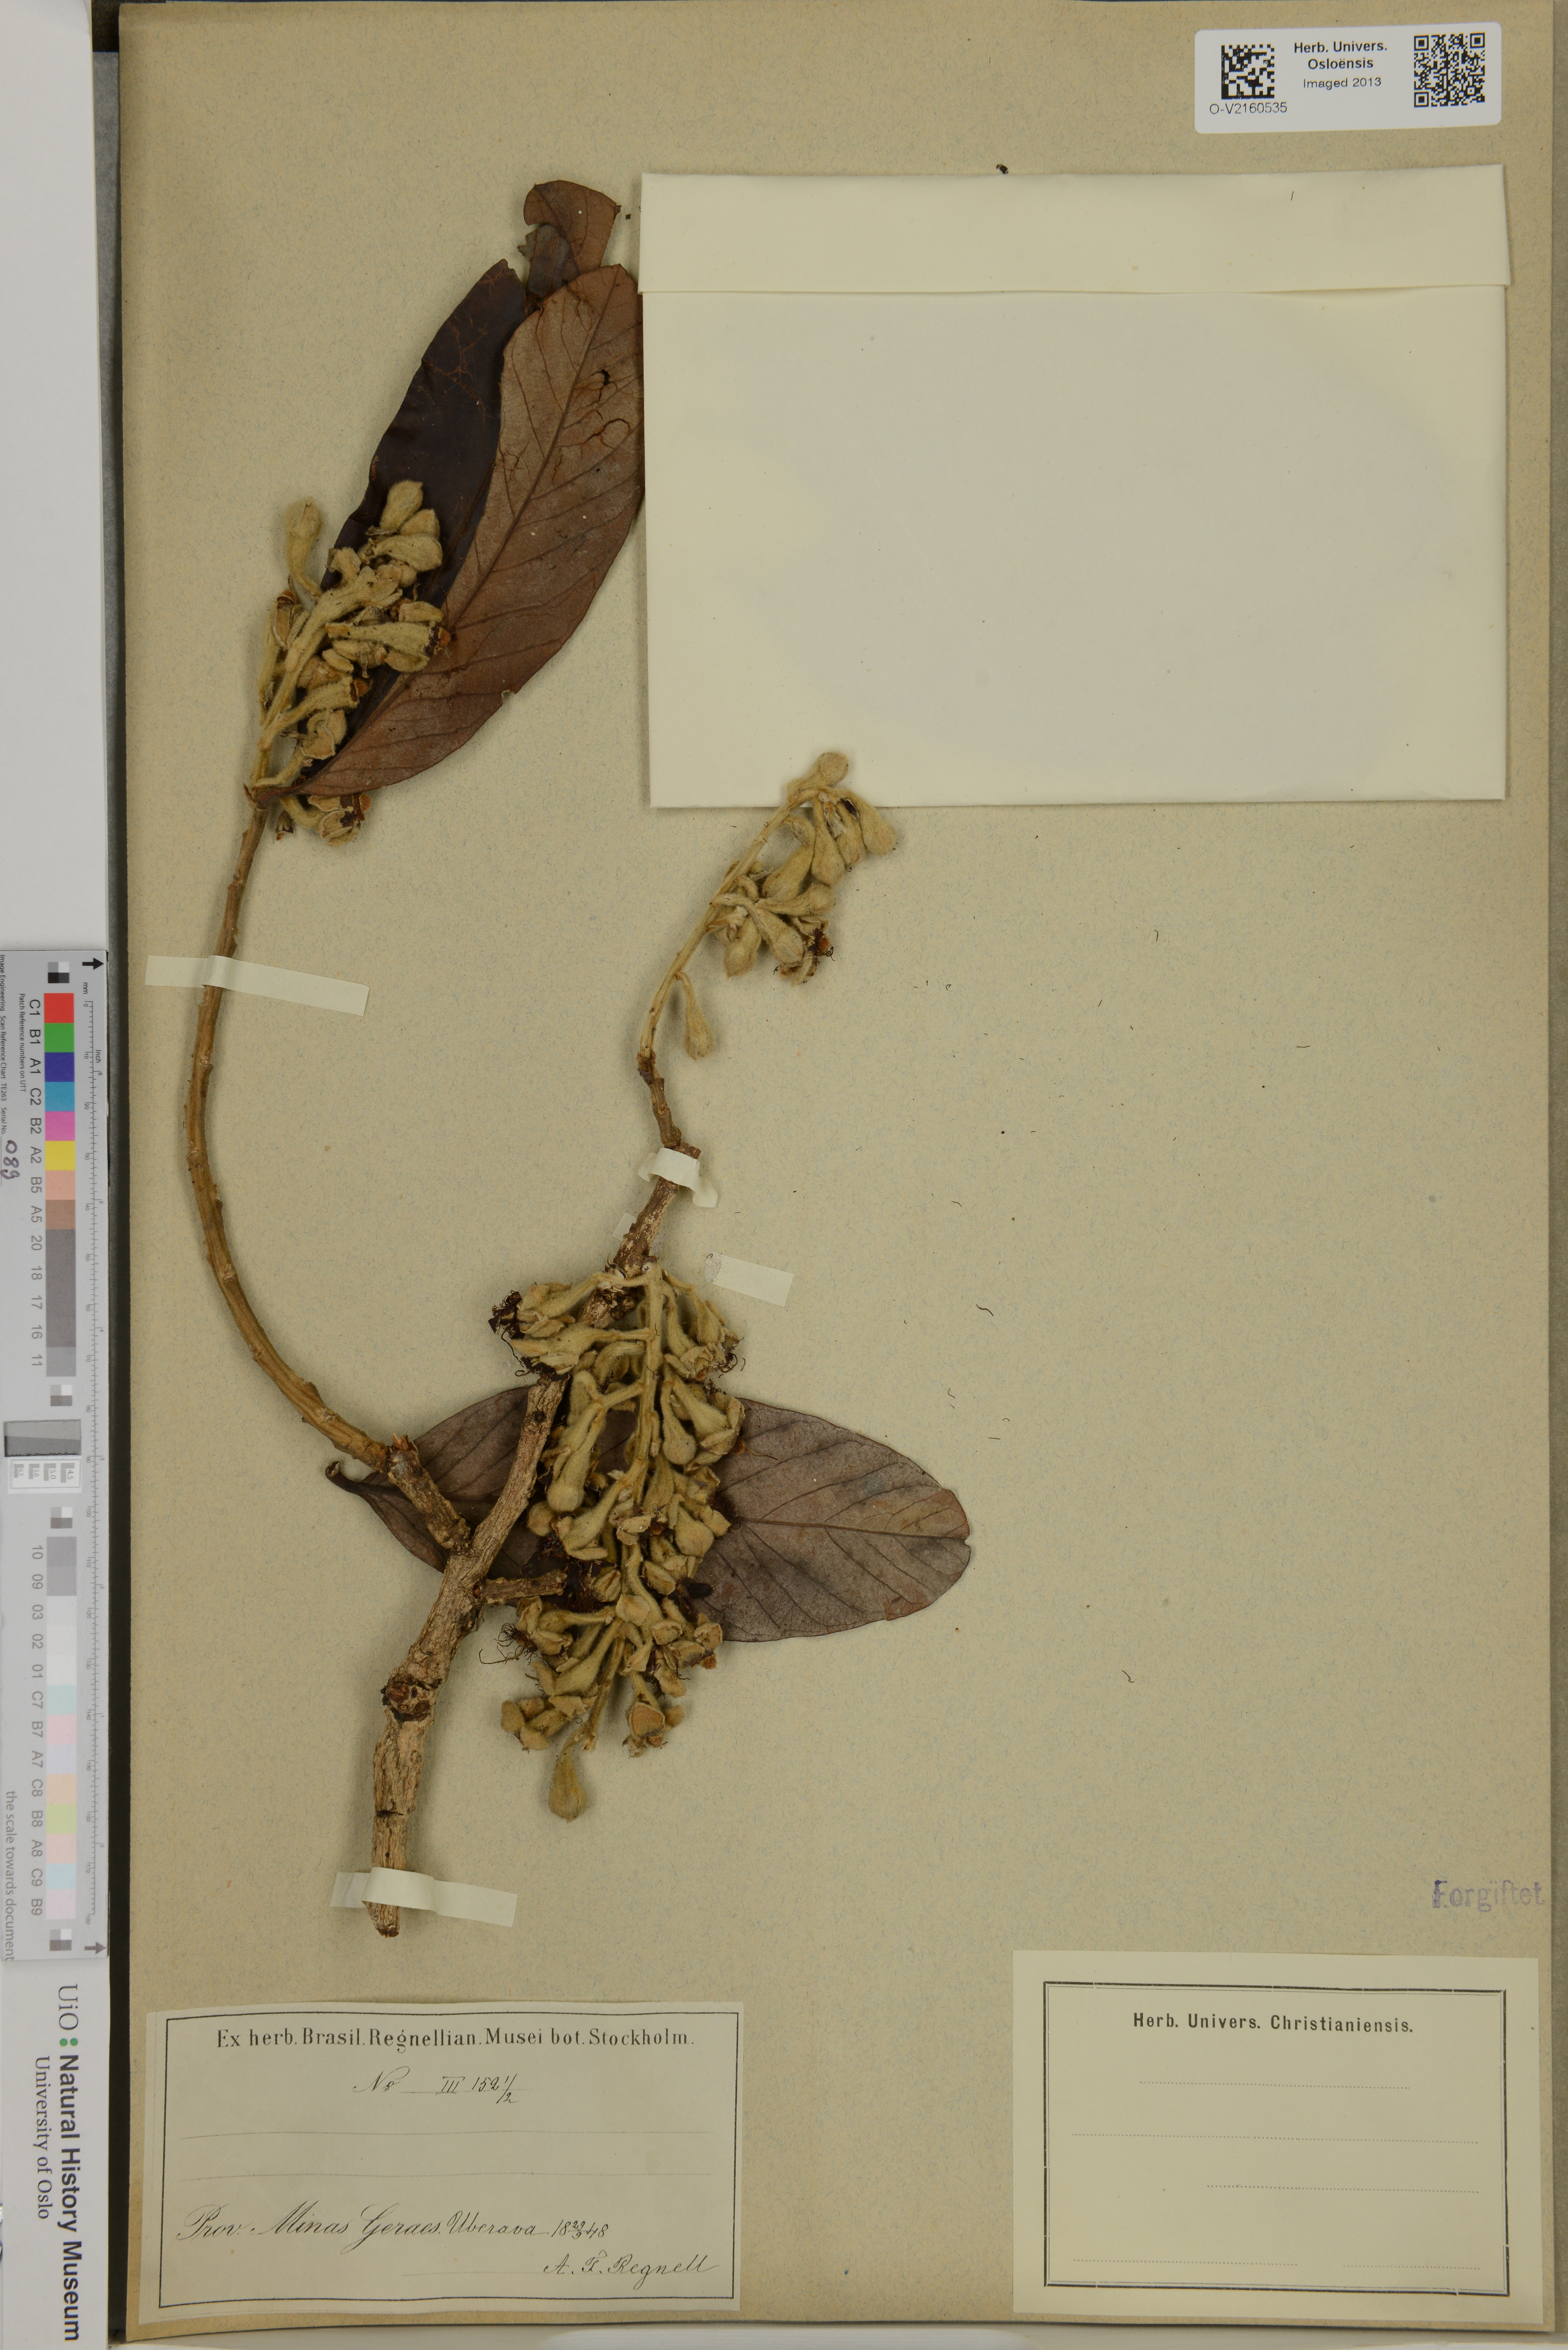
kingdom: Plantae
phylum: Tracheophyta
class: Magnoliopsida
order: Rosales
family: Rosaceae
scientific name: Rosaceae
